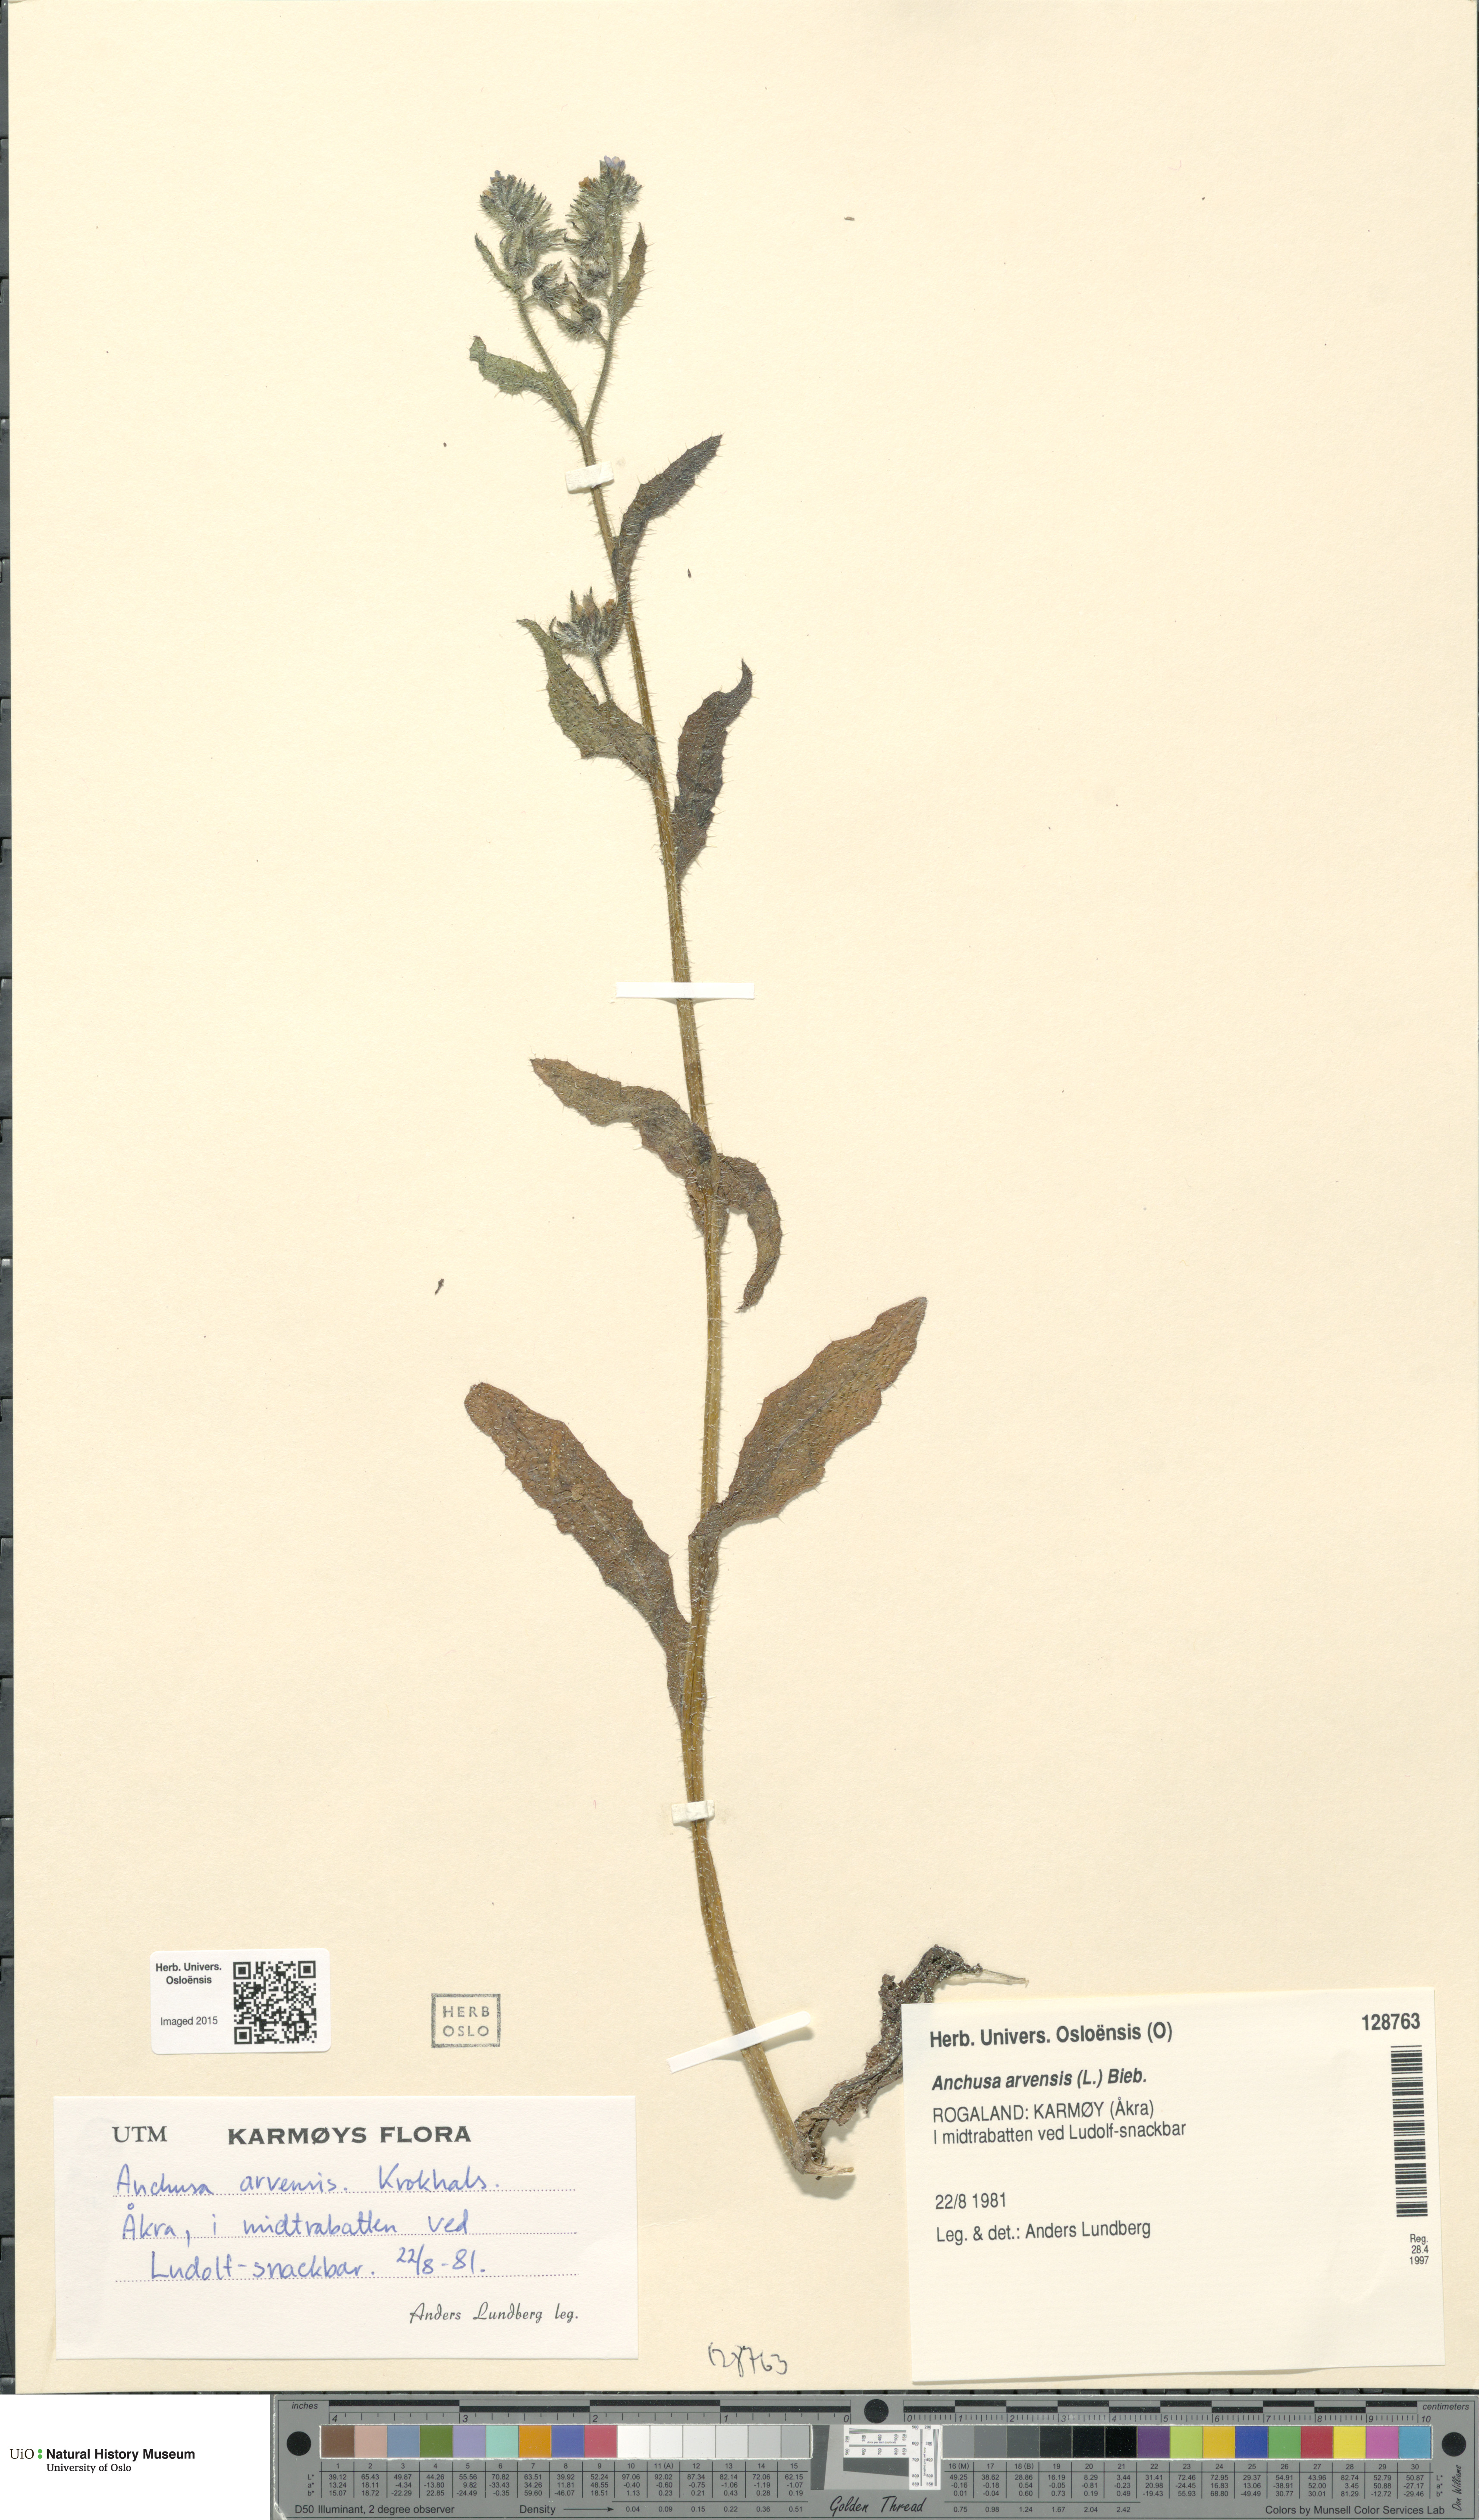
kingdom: Plantae
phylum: Tracheophyta
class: Magnoliopsida
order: Boraginales
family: Boraginaceae
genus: Lycopsis
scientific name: Lycopsis arvensis
